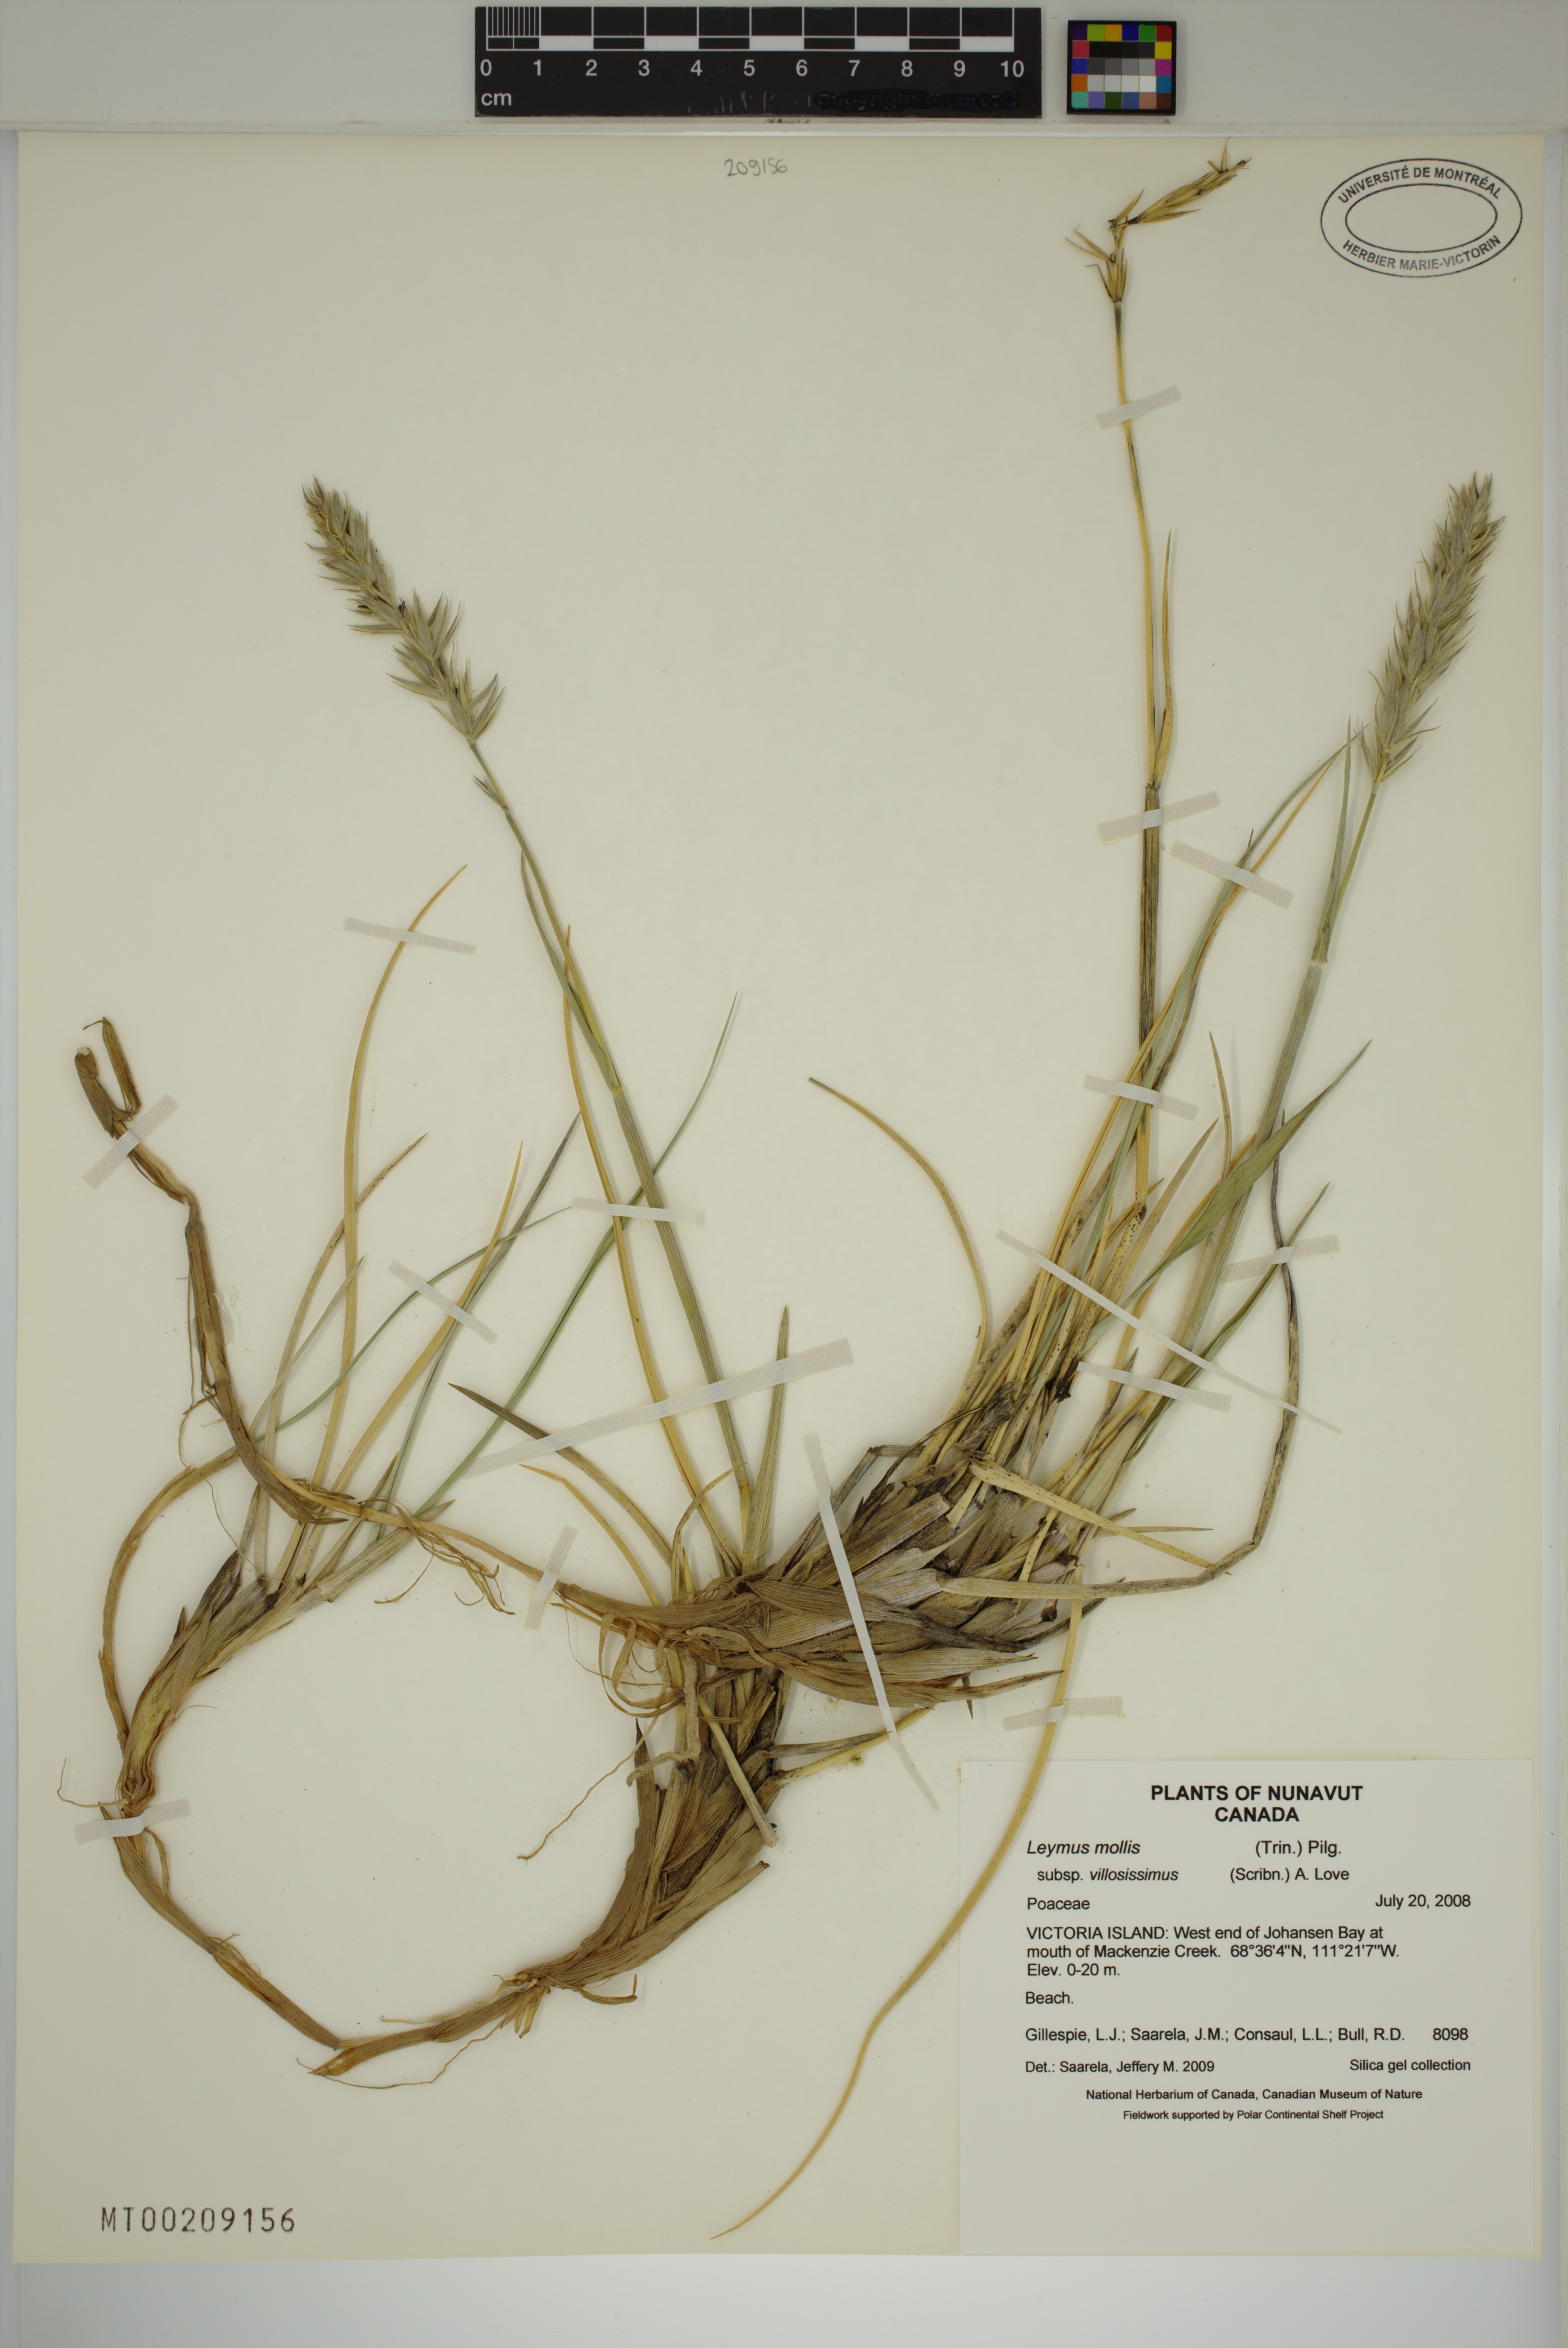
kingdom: Plantae
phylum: Tracheophyta
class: Liliopsida
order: Poales
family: Poaceae
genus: Leymus
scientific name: Leymus villosissimus
